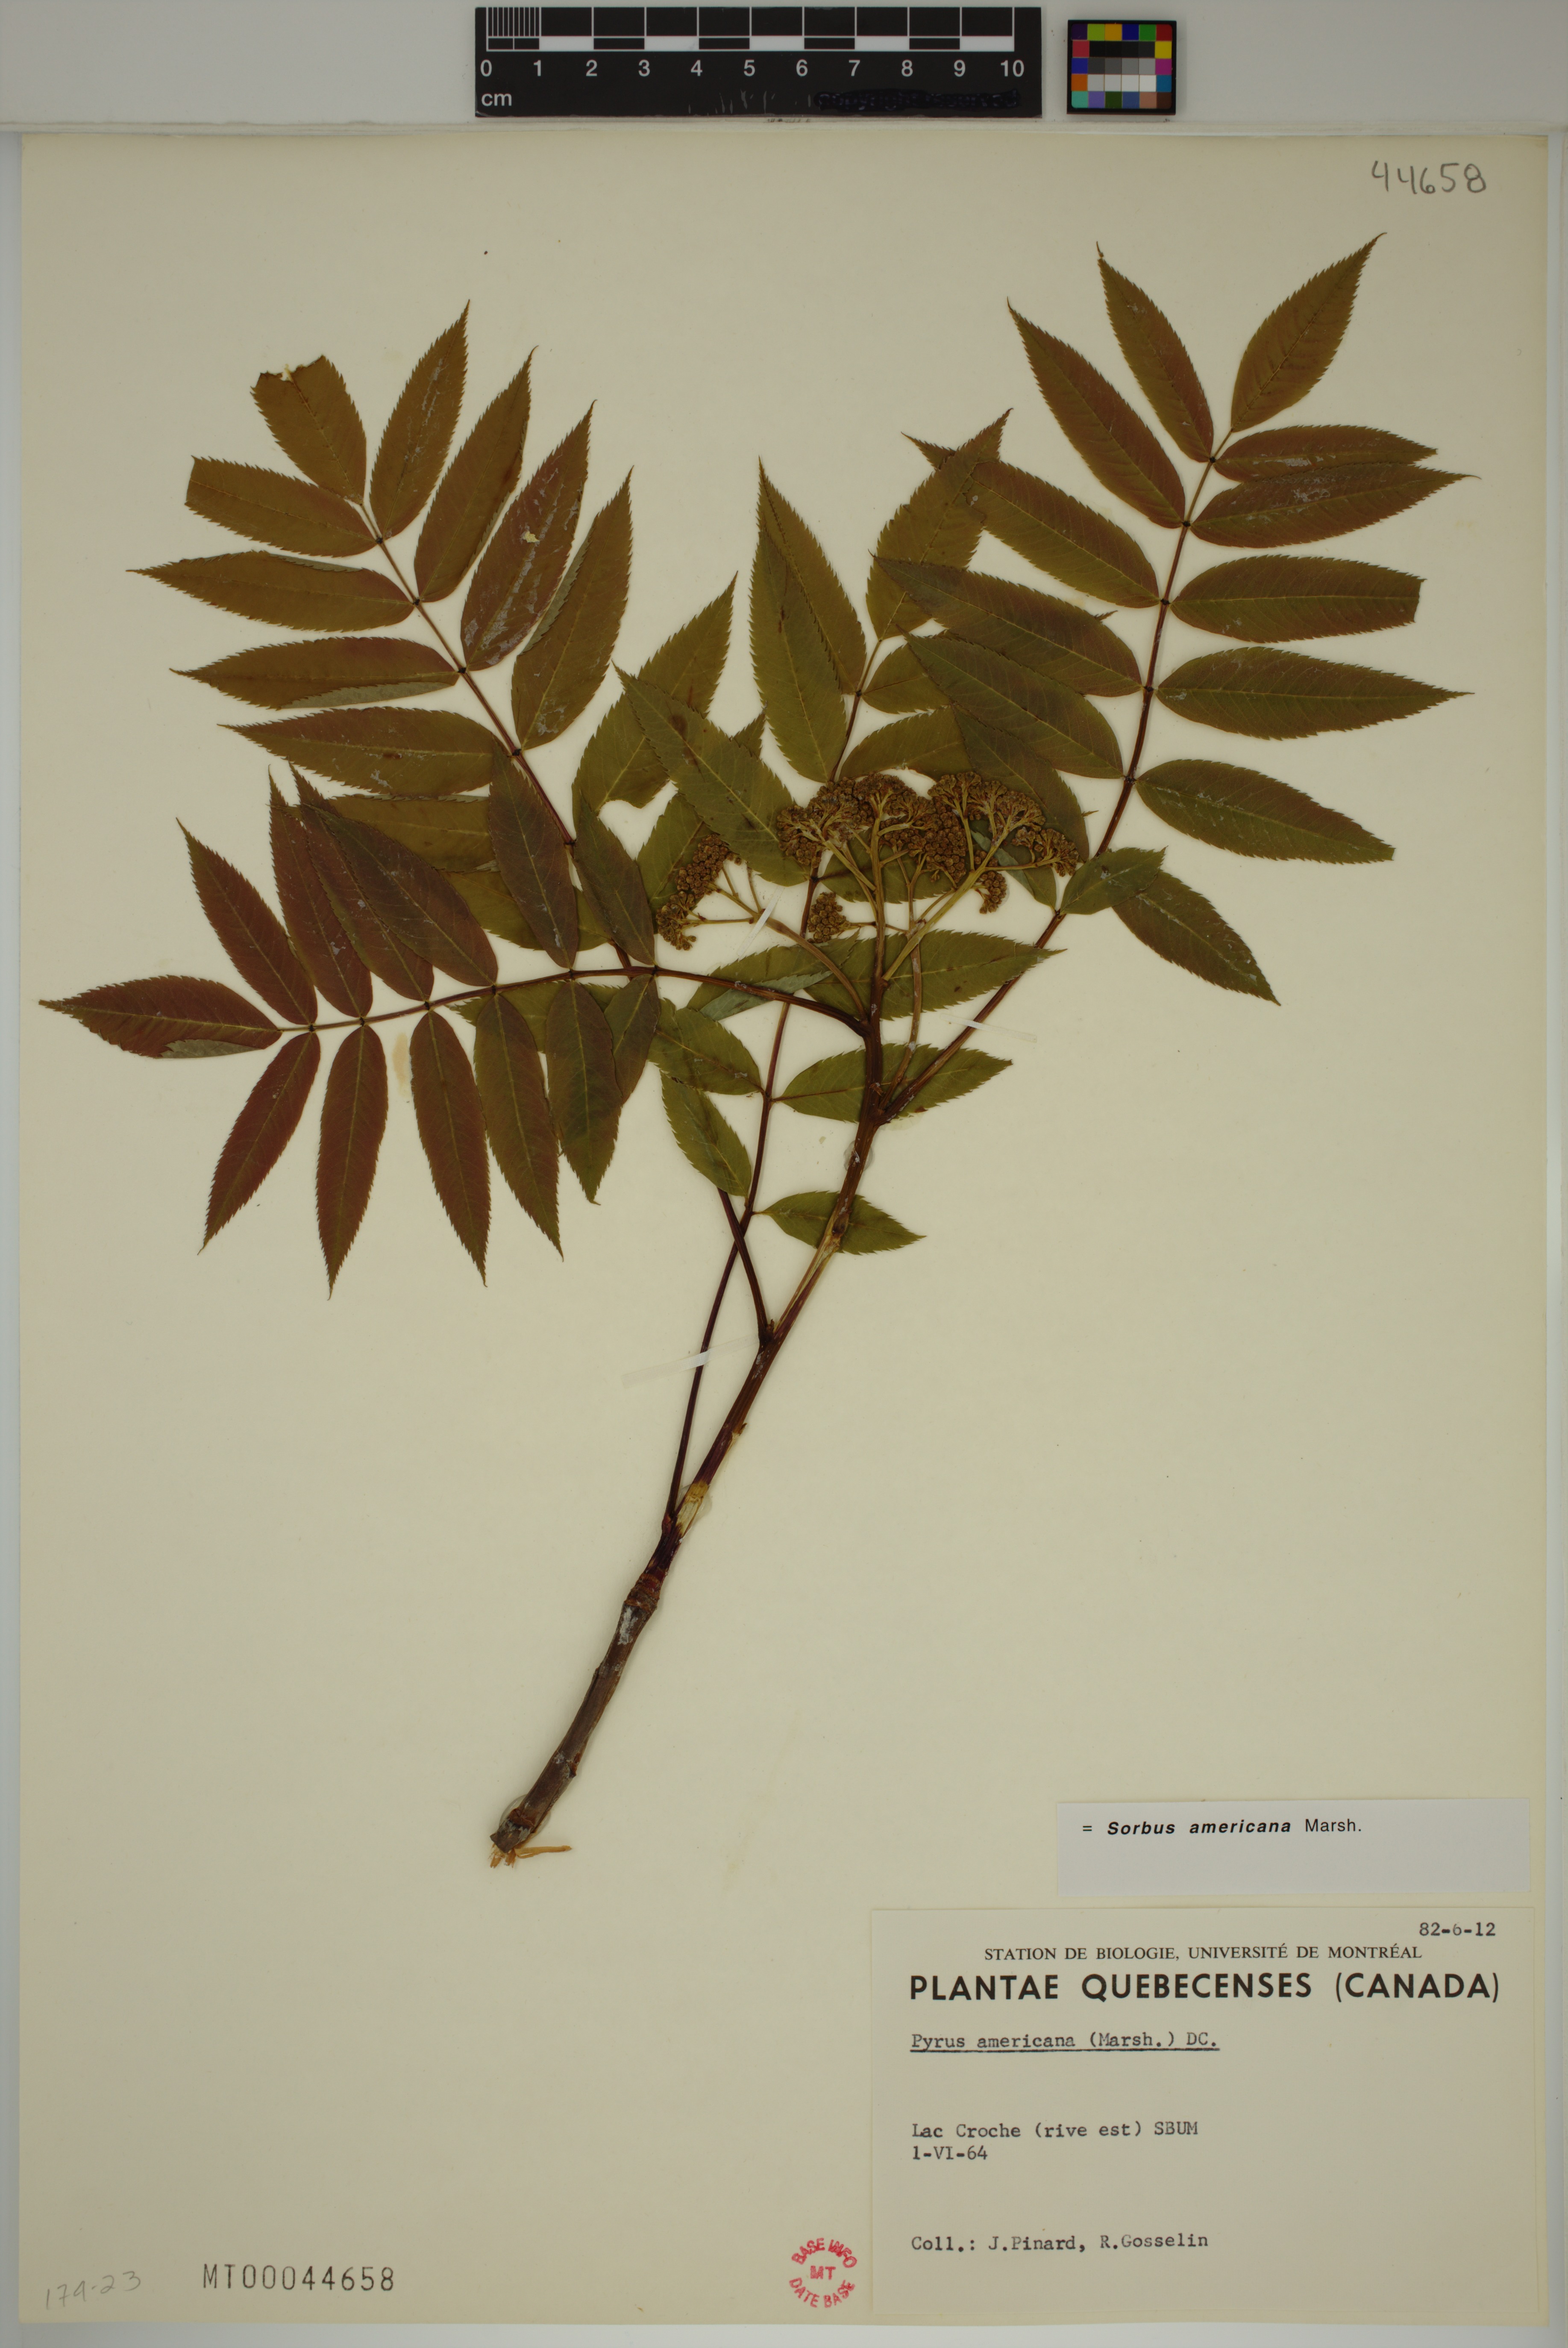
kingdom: Plantae
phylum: Tracheophyta
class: Magnoliopsida
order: Rosales
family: Rosaceae
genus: Sorbus
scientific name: Sorbus americana
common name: American mountain-ash
